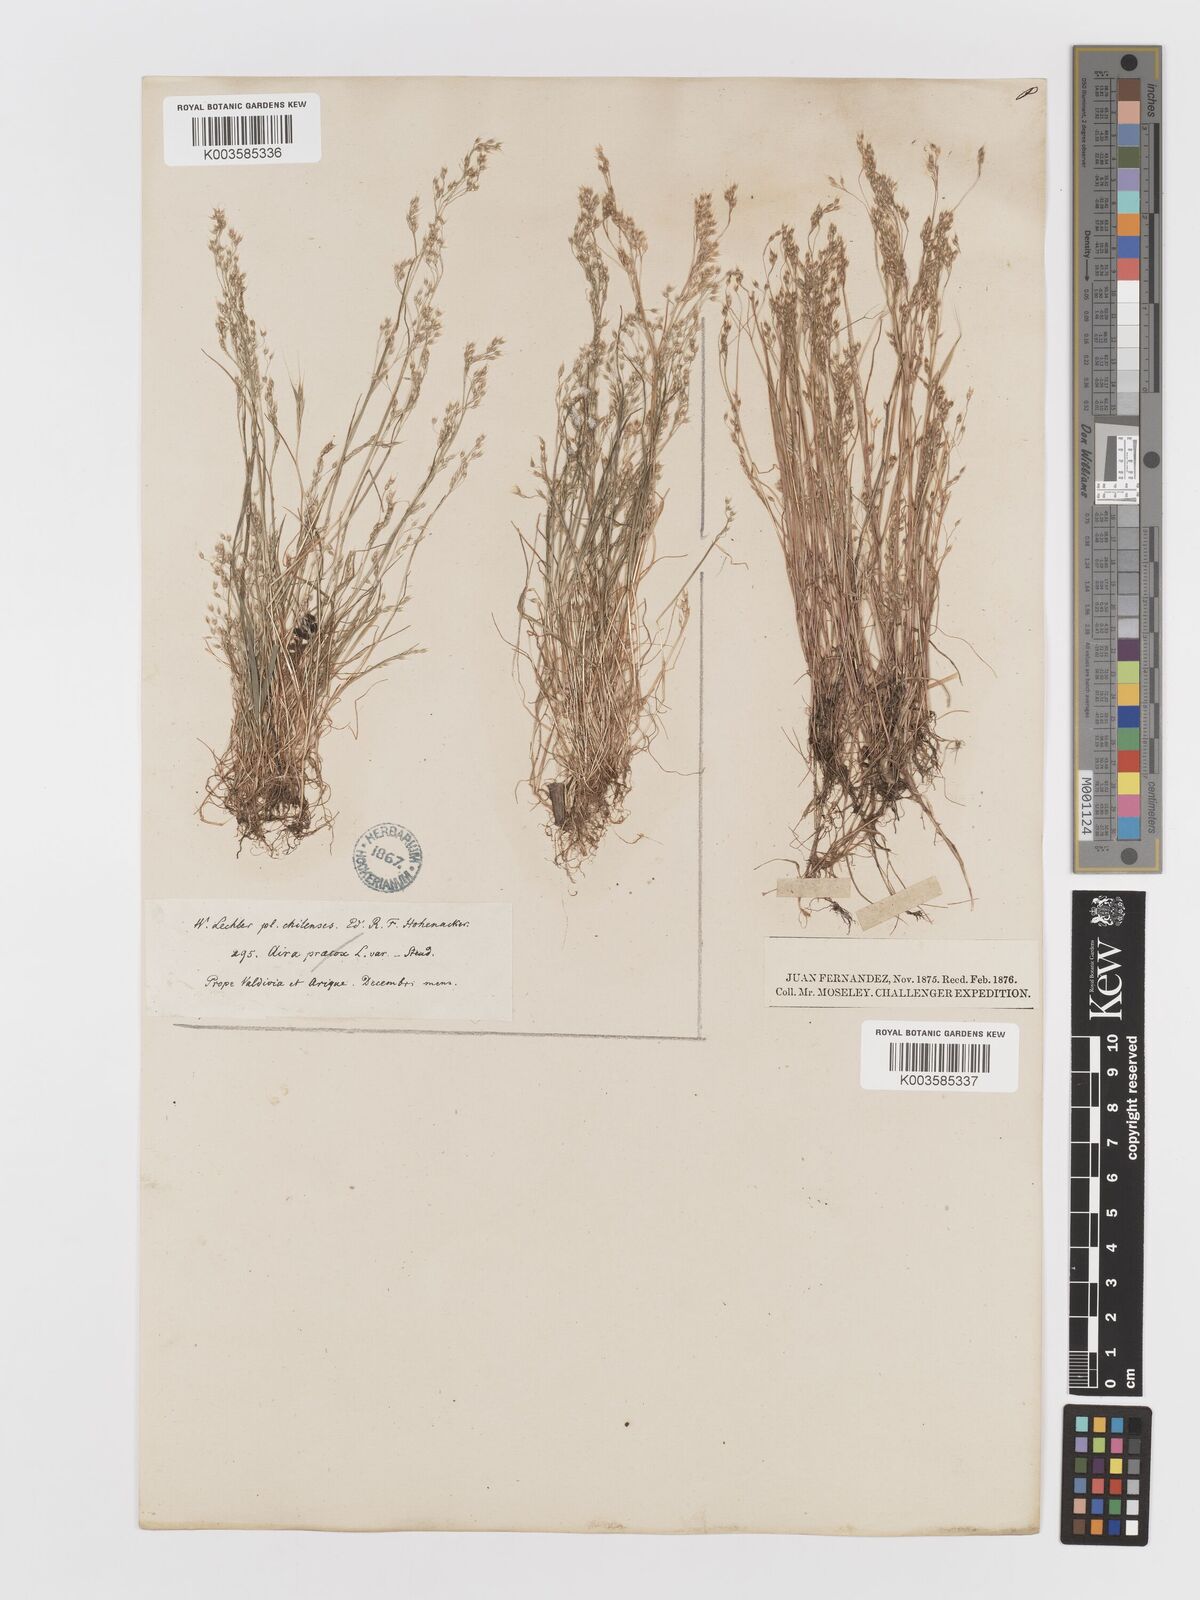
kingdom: Plantae
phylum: Tracheophyta
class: Liliopsida
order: Poales
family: Poaceae
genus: Aira
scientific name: Aira caryophyllea
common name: Silver hairgrass
